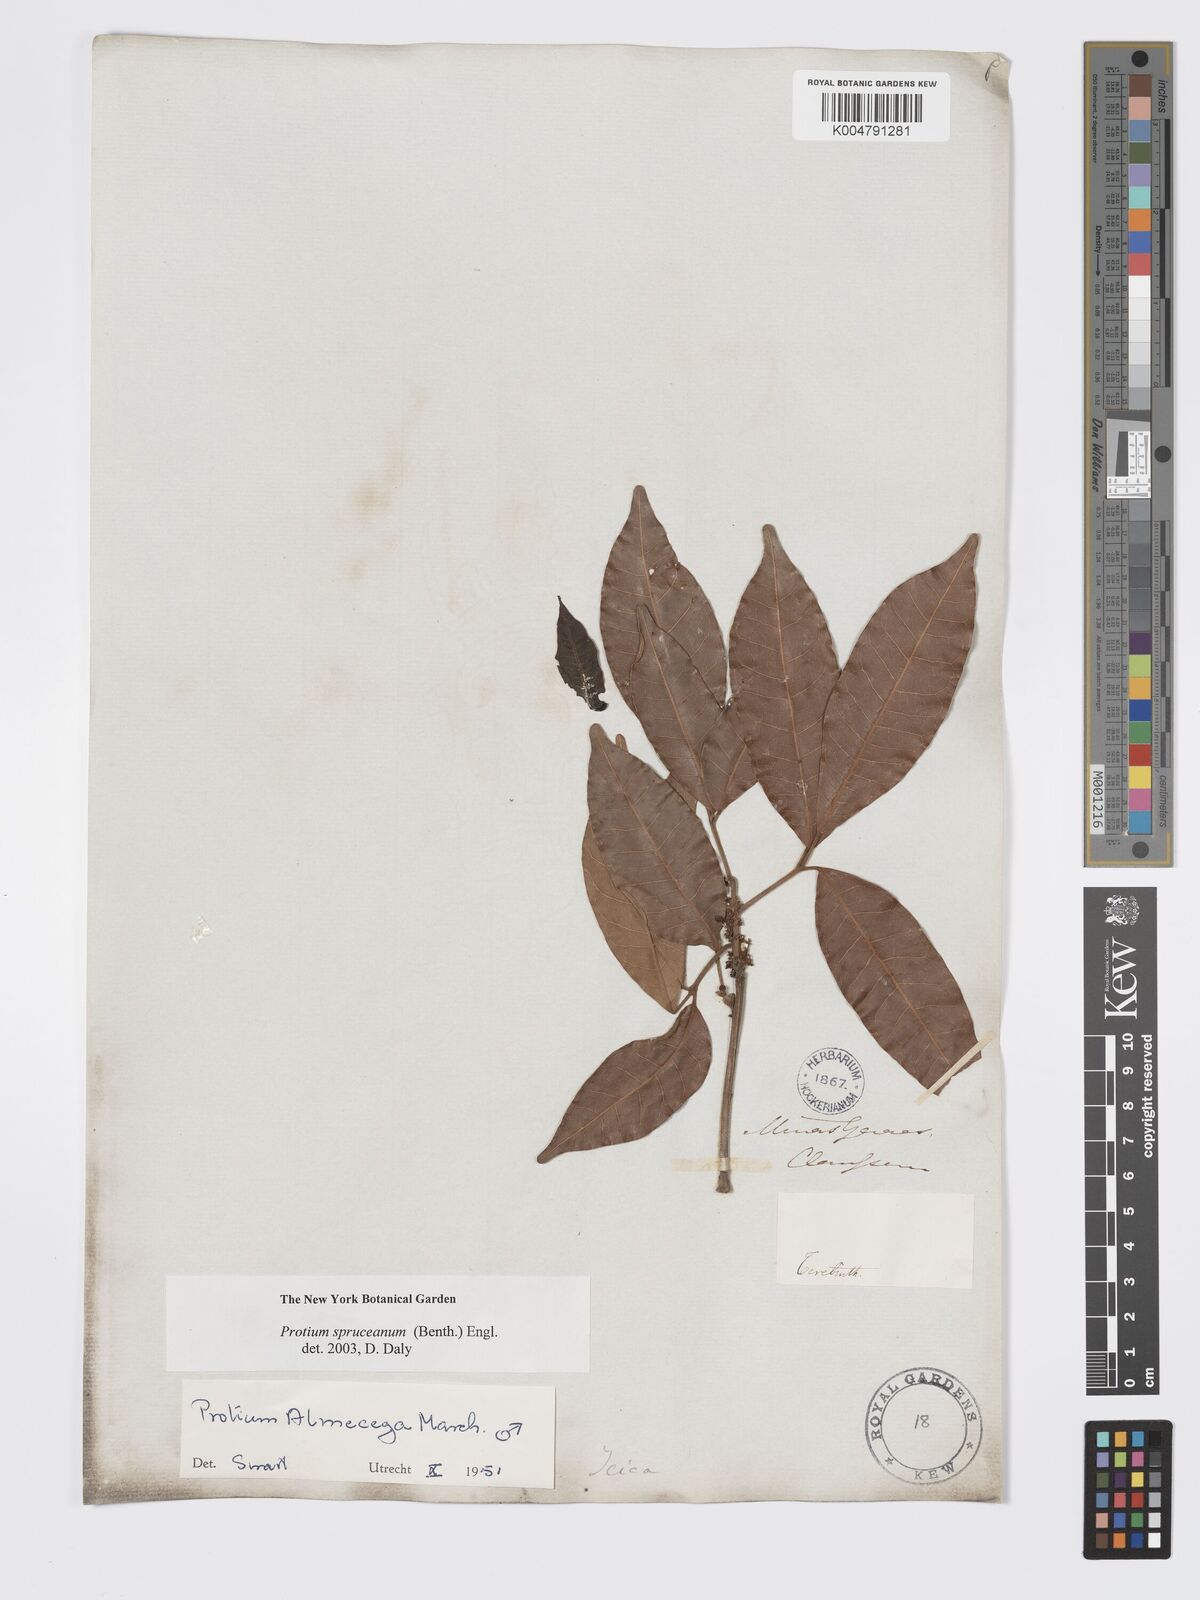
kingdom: Plantae
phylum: Tracheophyta
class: Magnoliopsida
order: Sapindales
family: Burseraceae
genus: Protium
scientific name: Protium spruceanum
